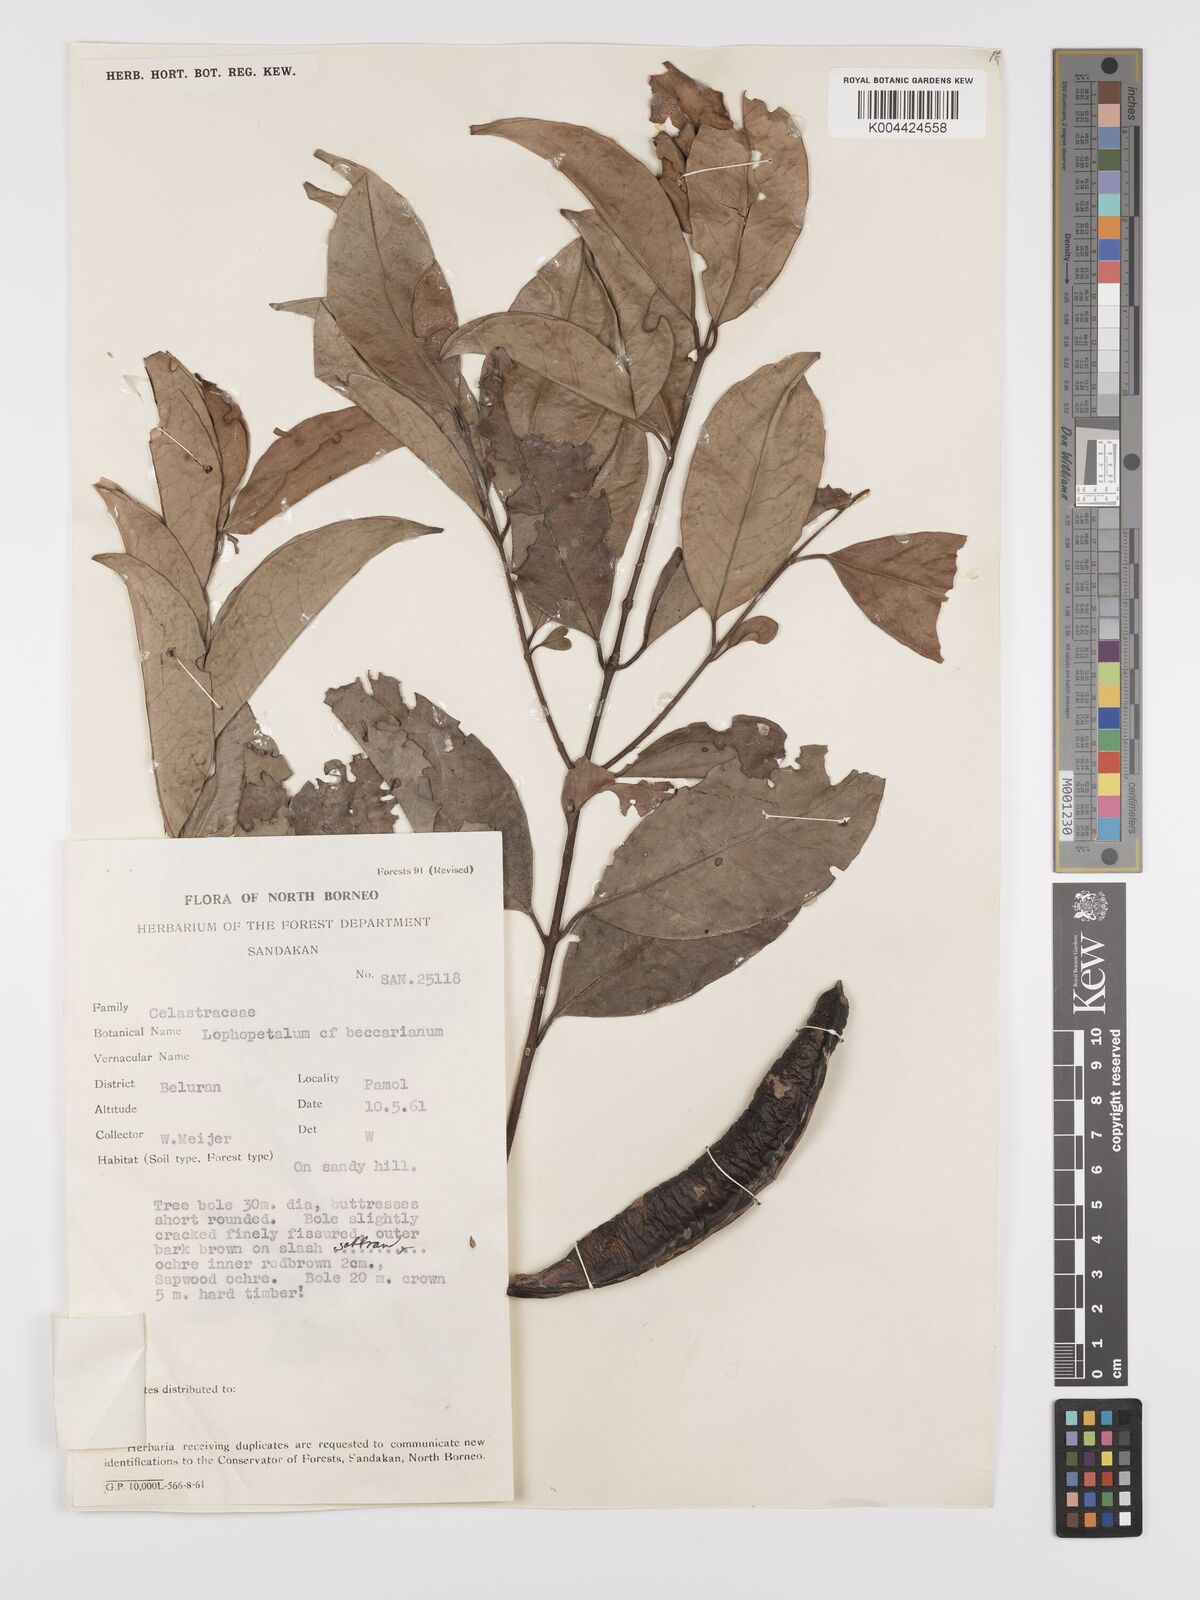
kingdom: Plantae
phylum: Tracheophyta
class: Magnoliopsida
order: Celastrales
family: Celastraceae
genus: Kokoona
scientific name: Kokoona littoralis
